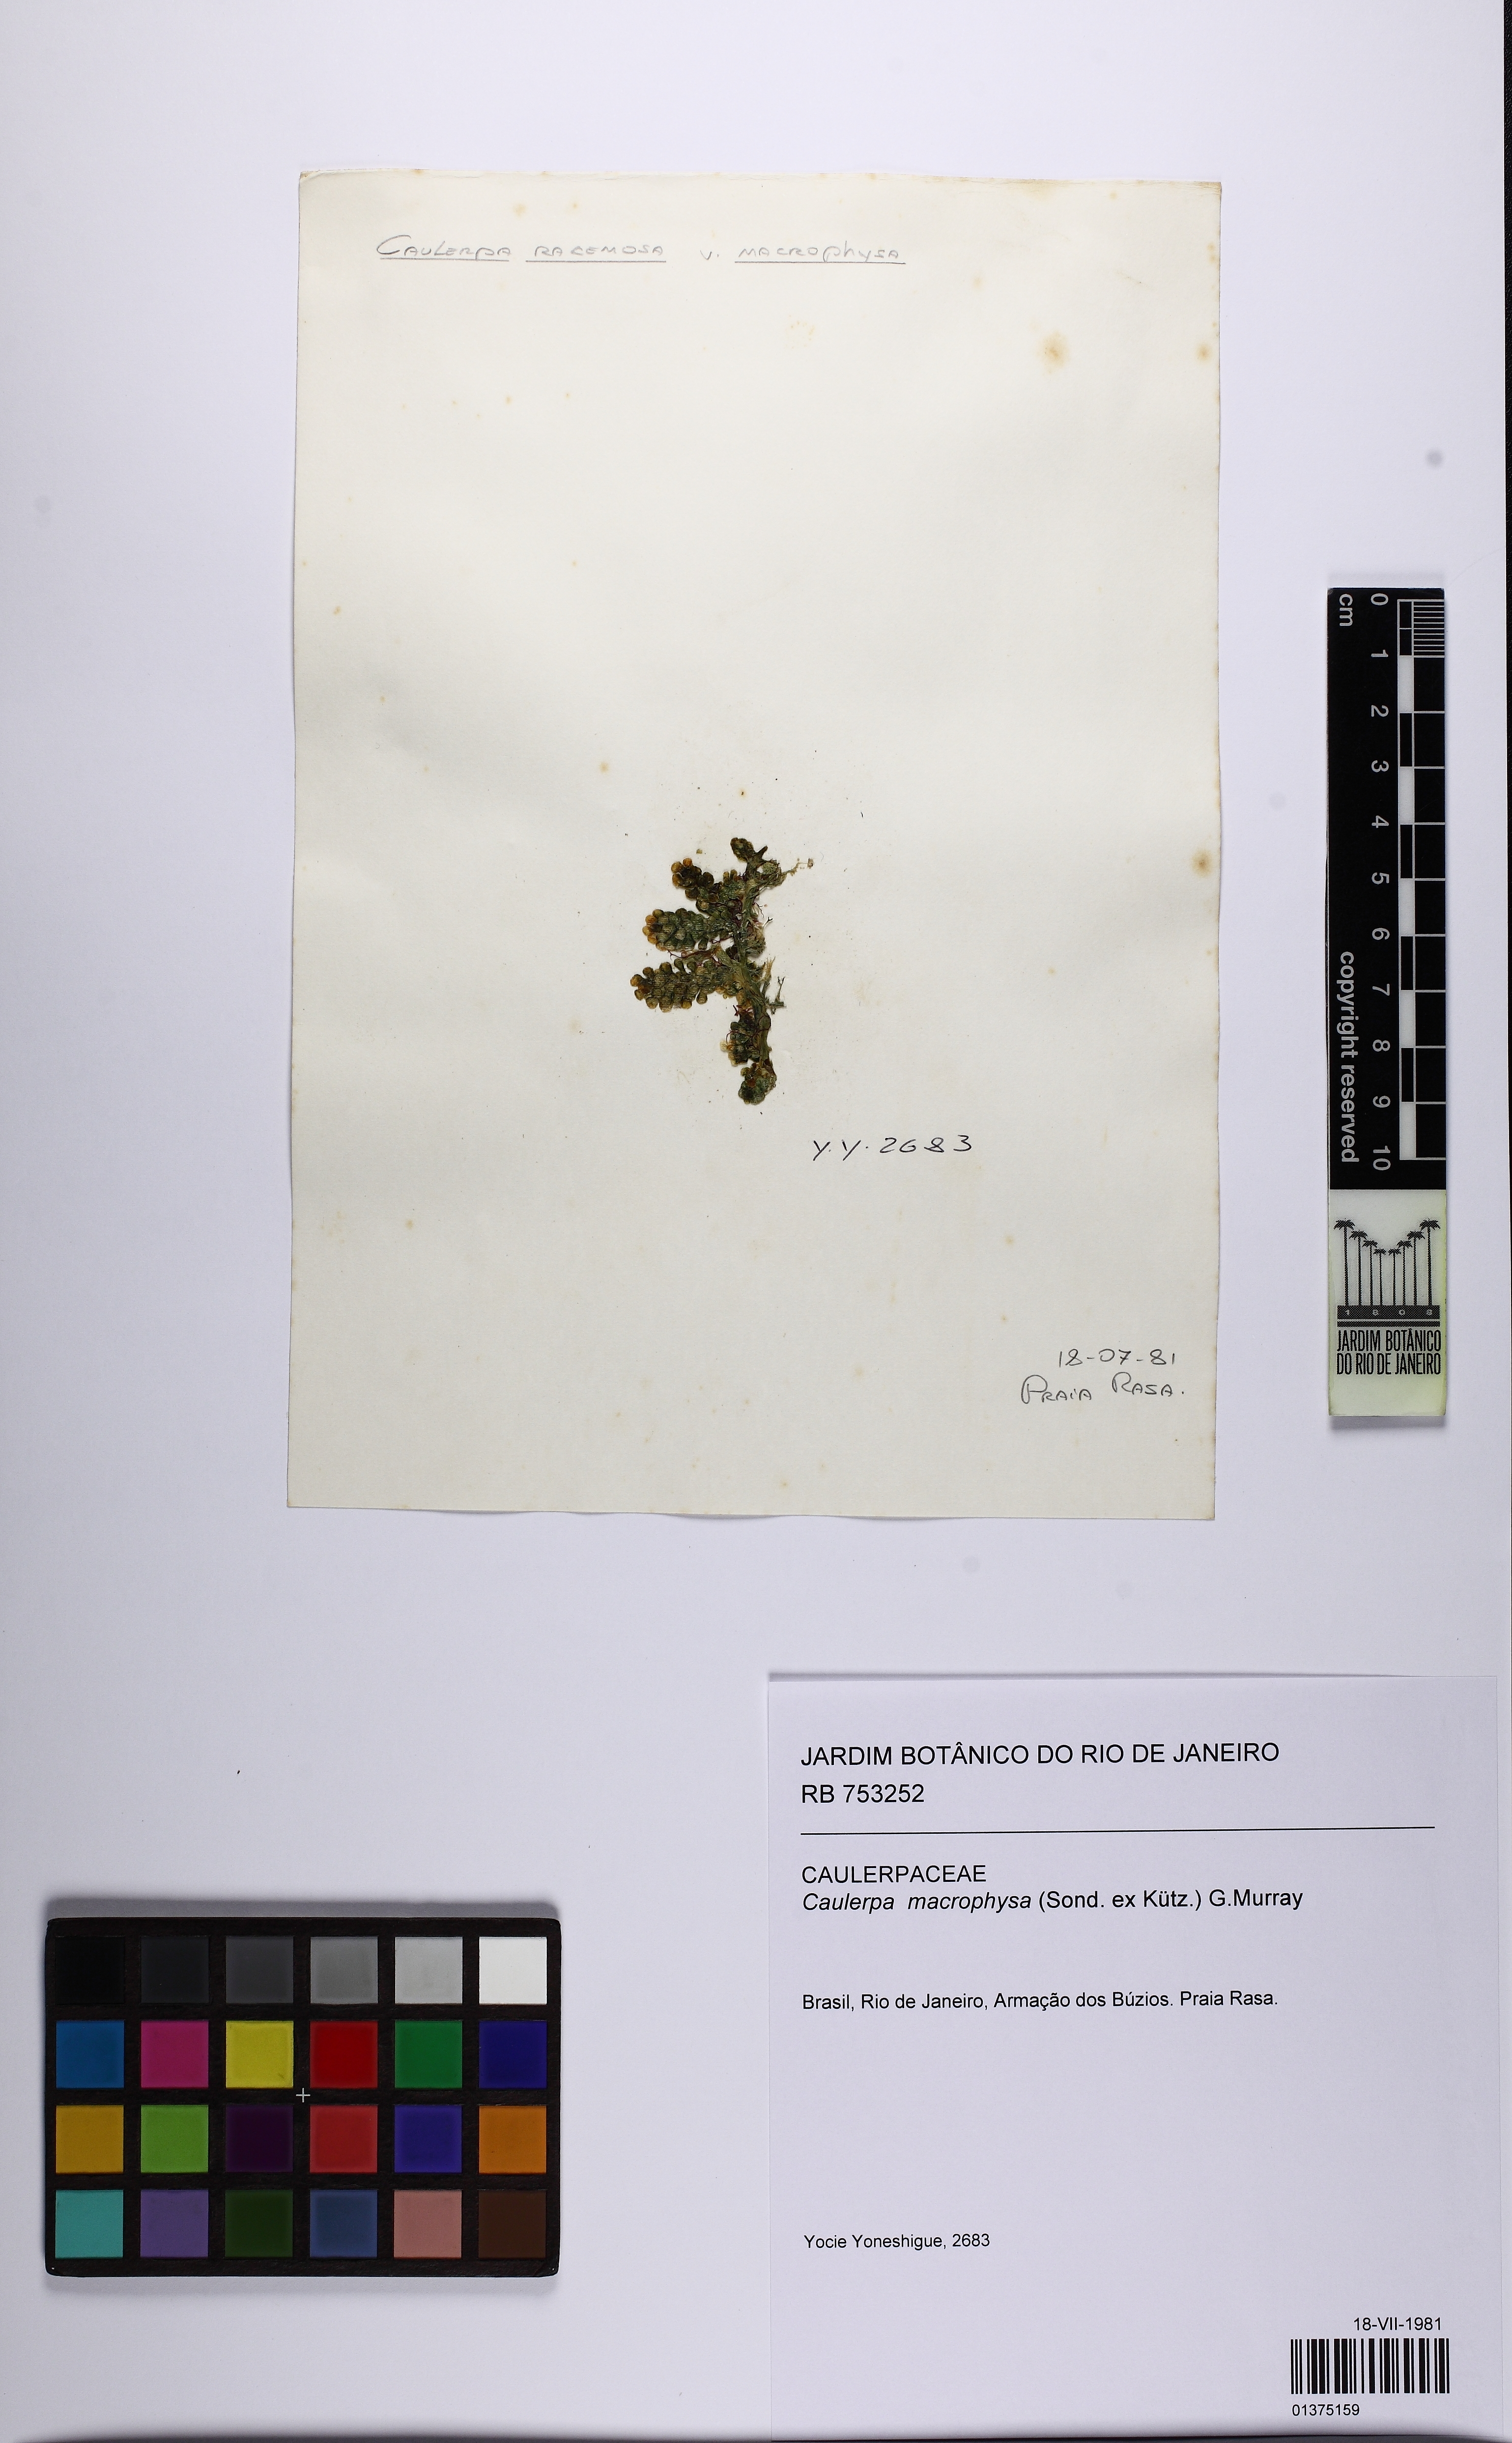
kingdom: Plantae
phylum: Chlorophyta
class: Ulvophyceae
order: Bryopsidales
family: Caulerpaceae
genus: Caulerpa
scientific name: Caulerpa macrophysa
